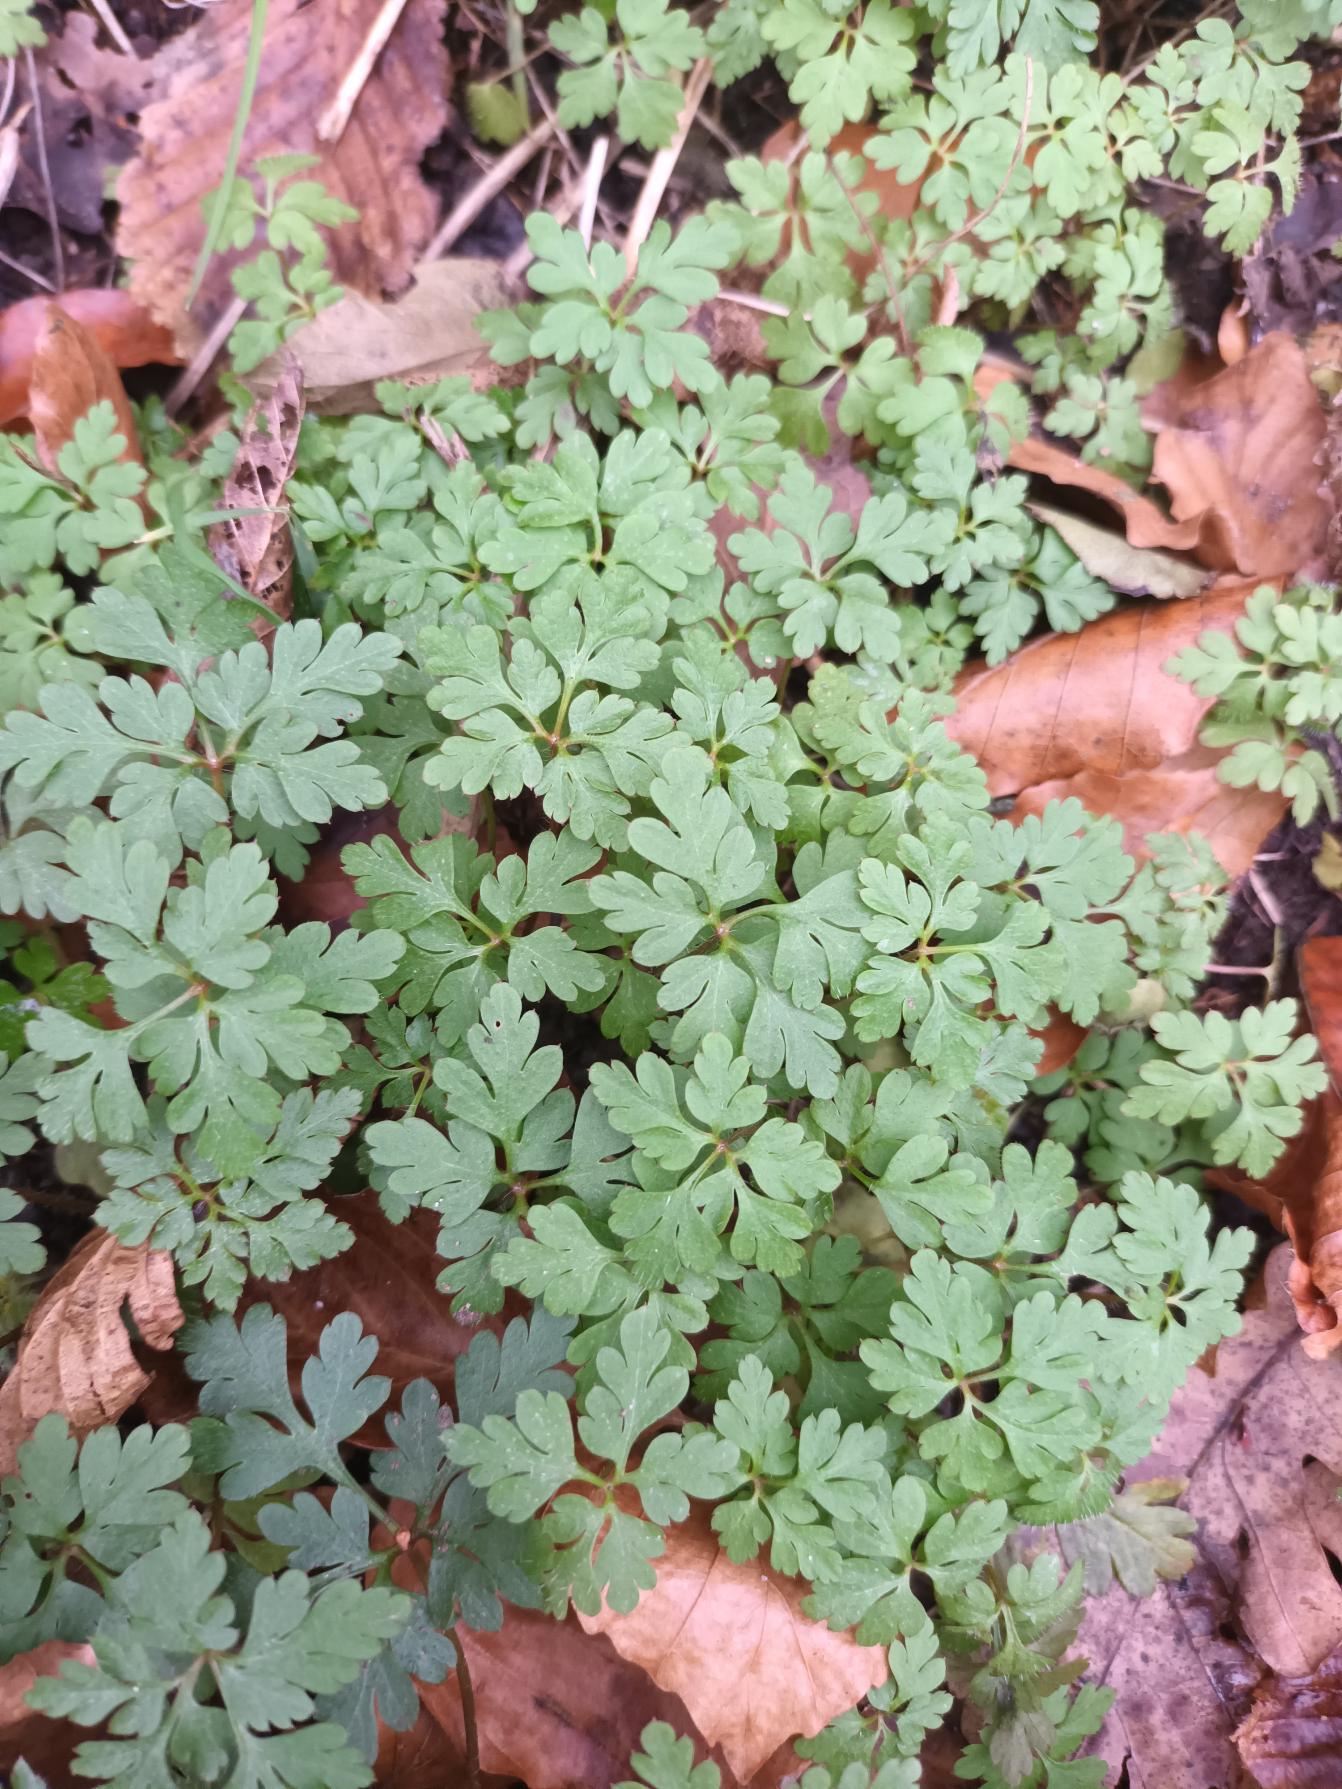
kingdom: Plantae
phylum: Tracheophyta
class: Magnoliopsida
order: Geraniales
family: Geraniaceae
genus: Geranium
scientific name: Geranium robertianum
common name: Stinkende storkenæb
